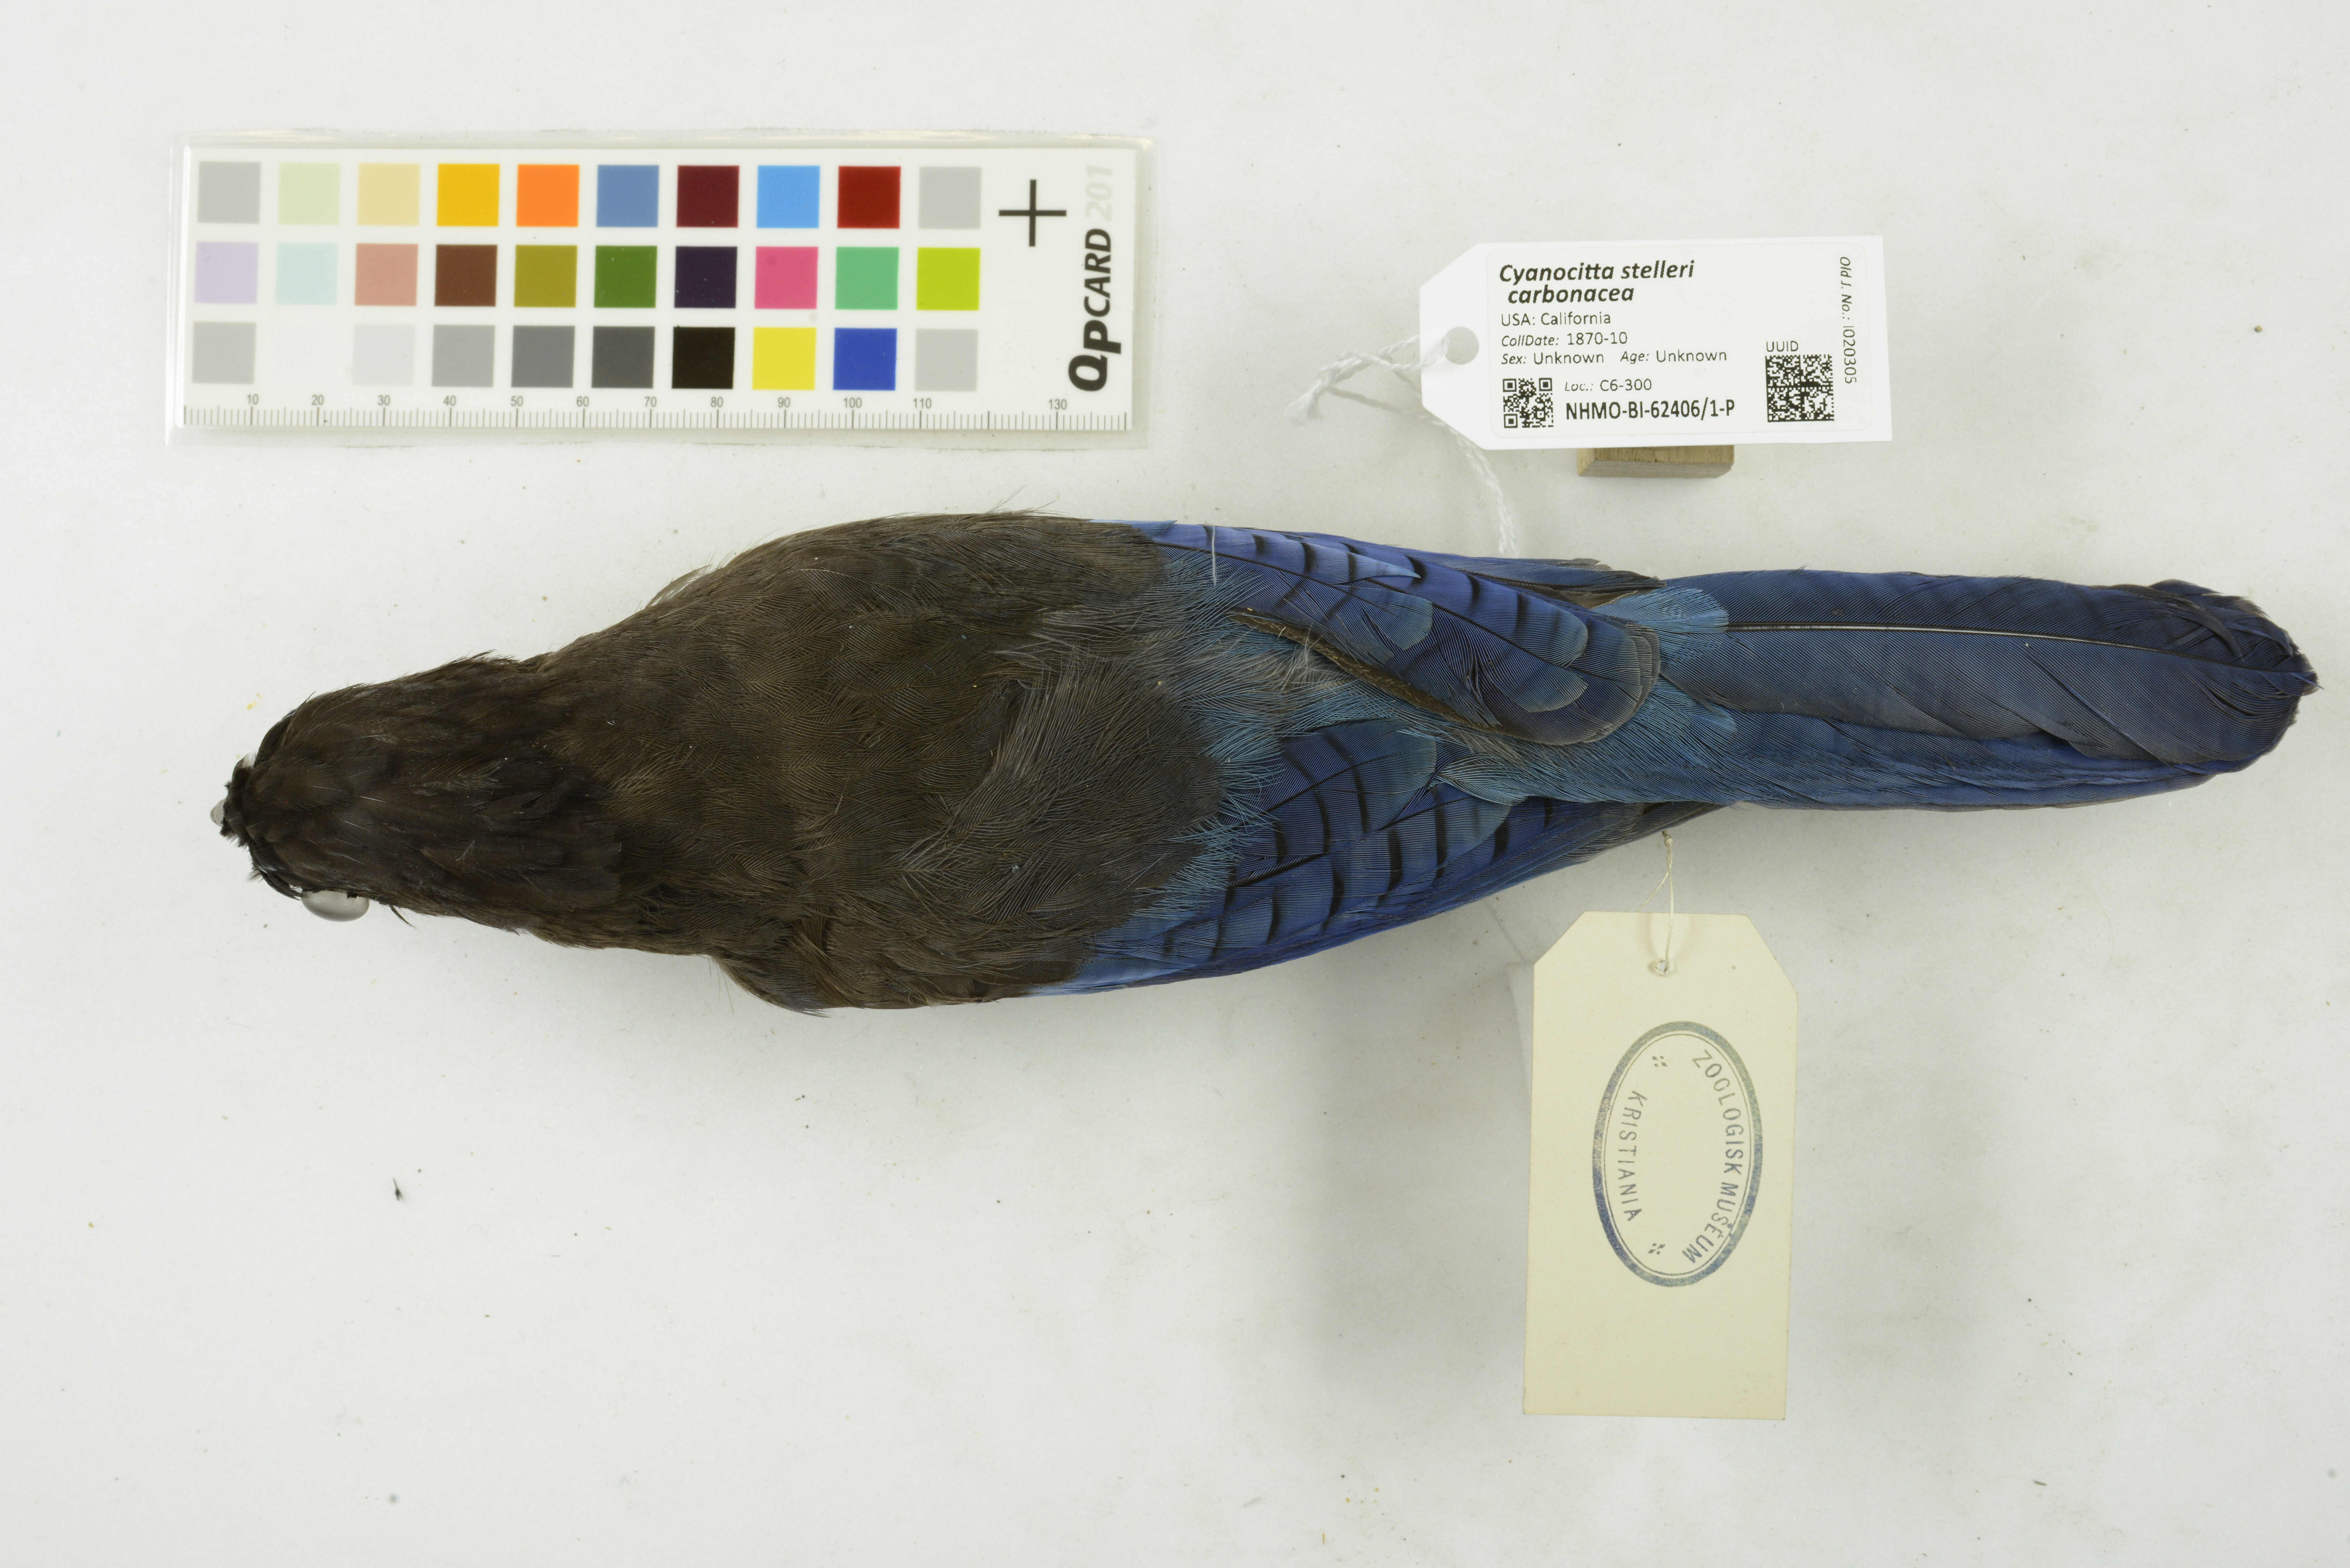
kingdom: Animalia
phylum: Chordata
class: Aves
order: Passeriformes
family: Corvidae
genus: Cyanocitta
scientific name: Cyanocitta stelleri
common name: Steller's jay
